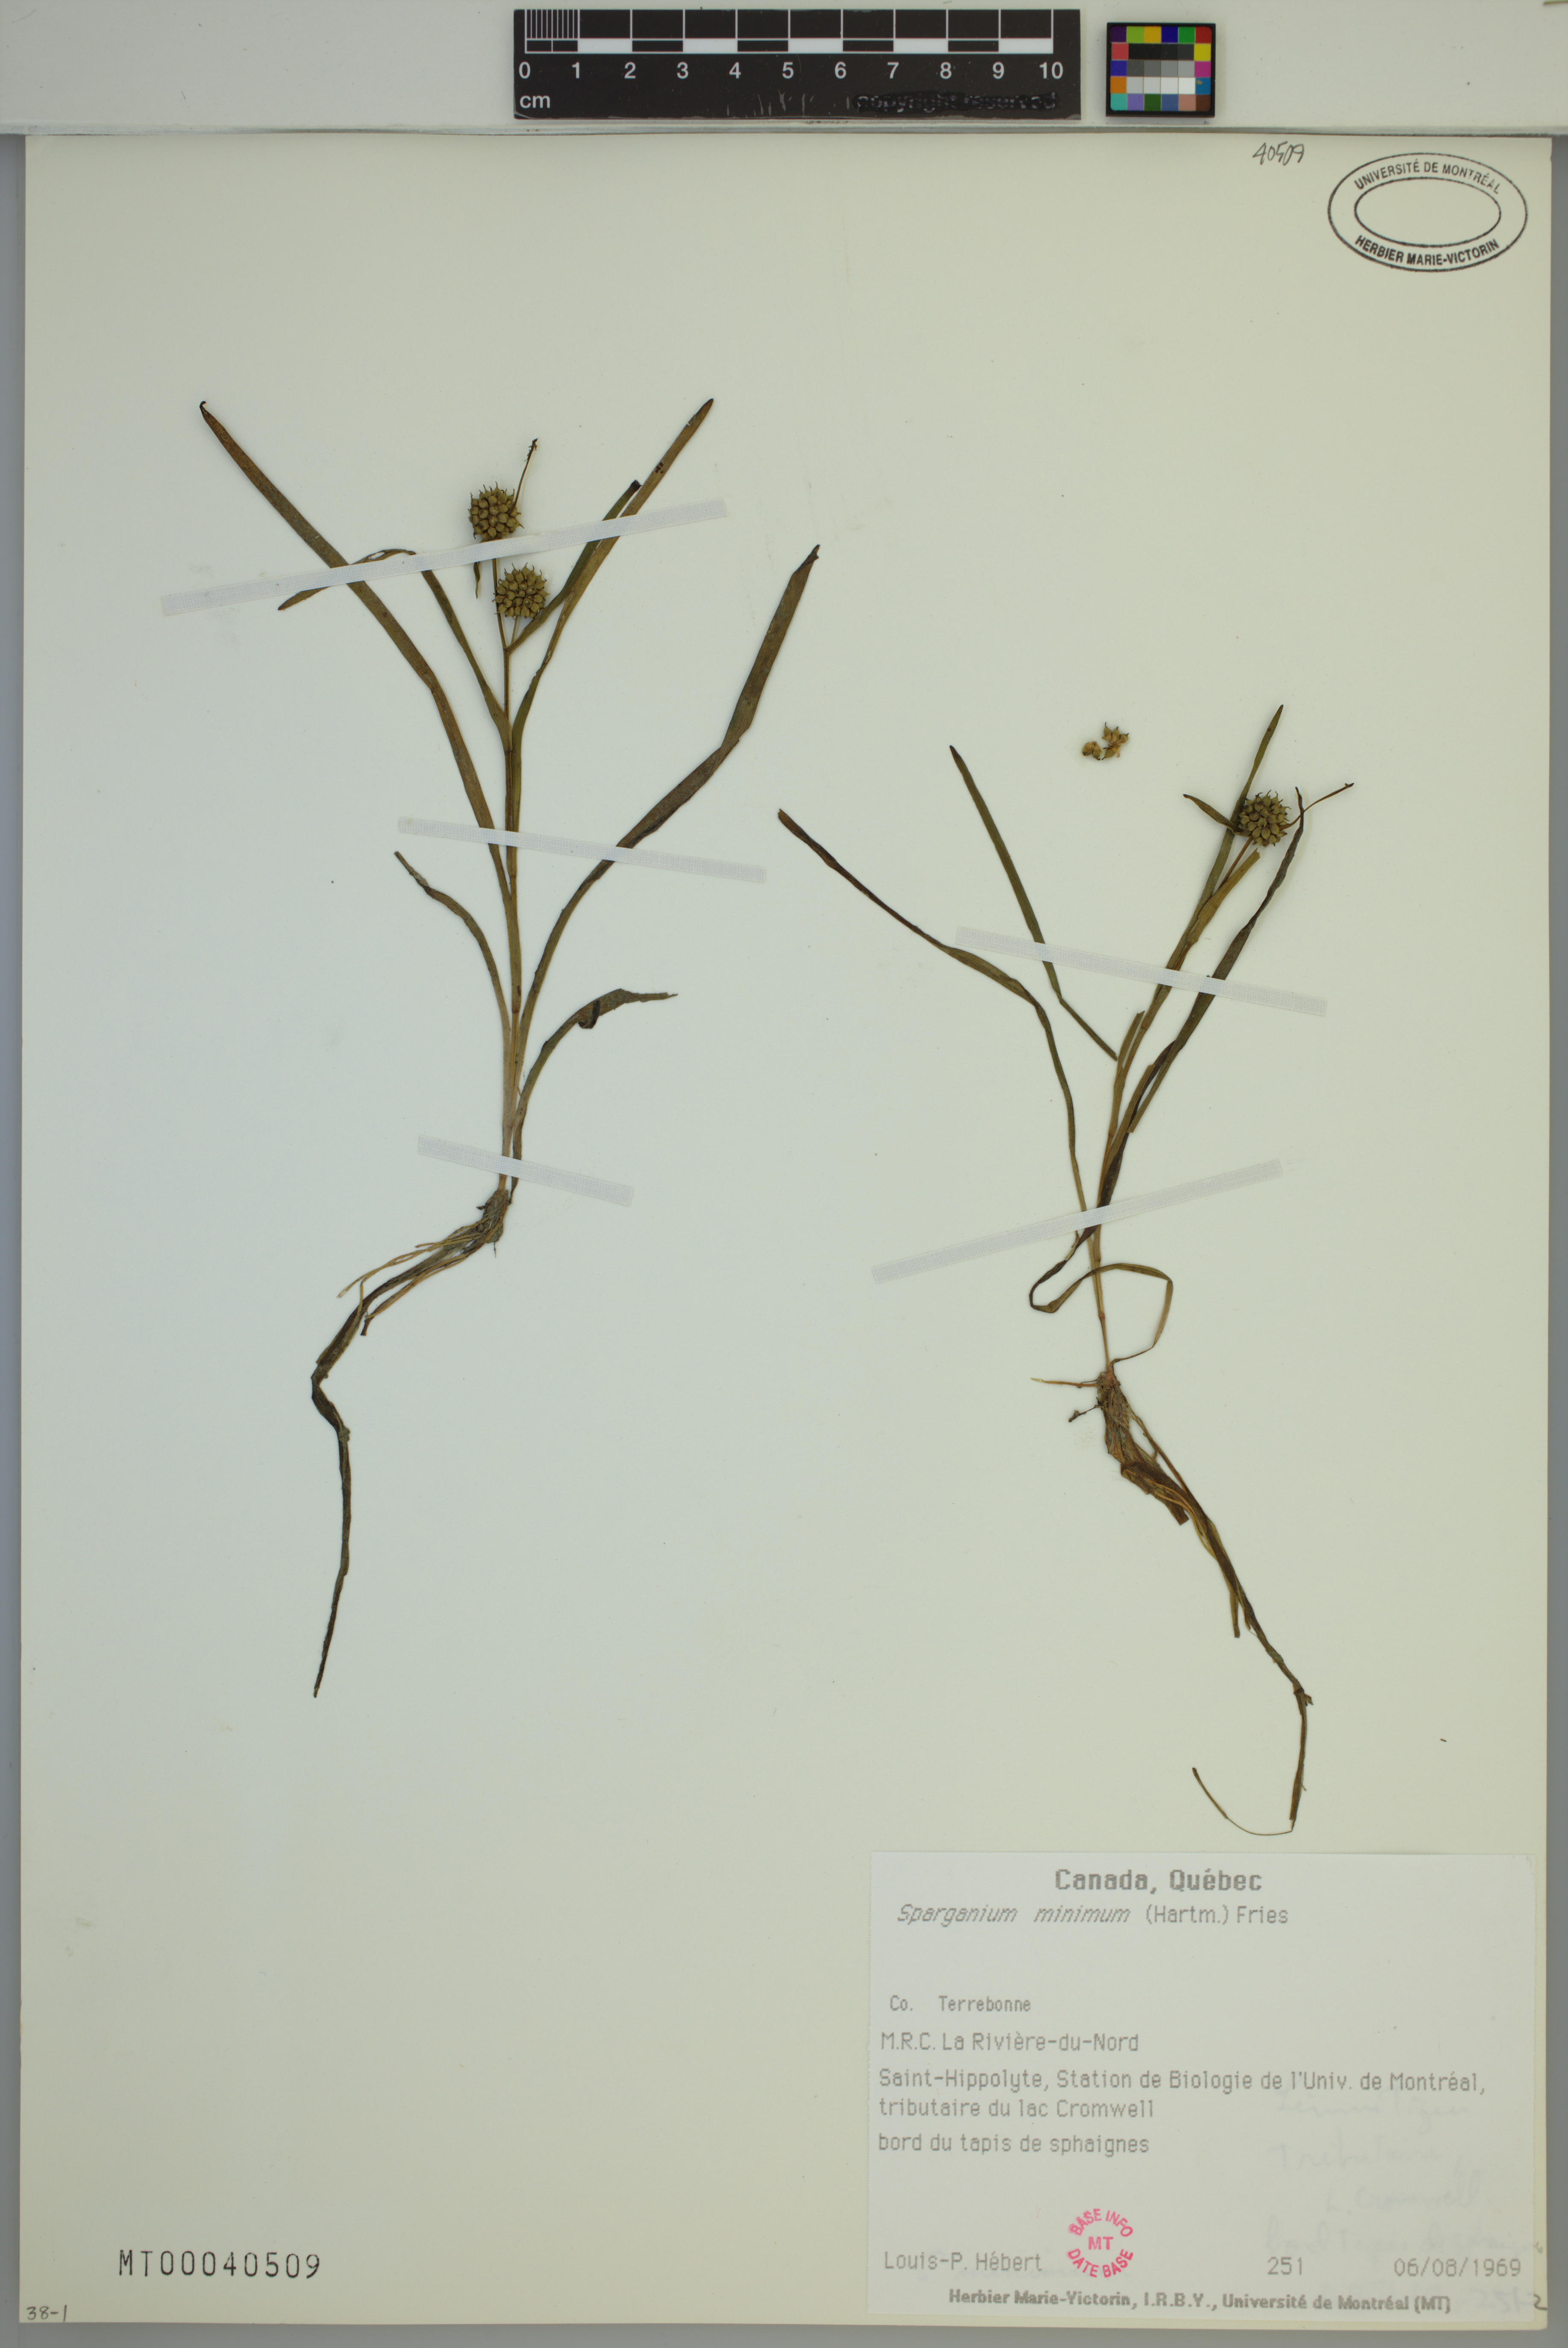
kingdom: Plantae
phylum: Tracheophyta
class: Liliopsida
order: Poales
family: Typhaceae
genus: Sparganium
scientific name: Sparganium natans
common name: Least bur-reed
